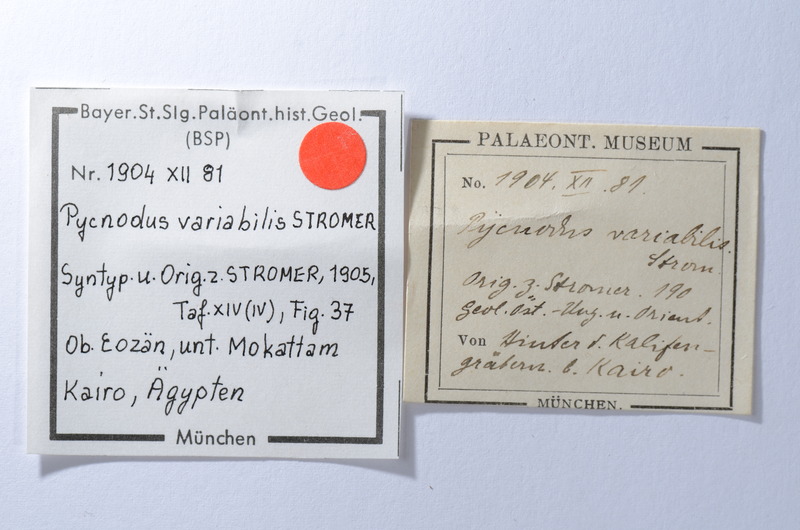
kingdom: Animalia
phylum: Chordata
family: Pycnodontidae
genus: Pycnodus
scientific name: Pycnodus variabilis
